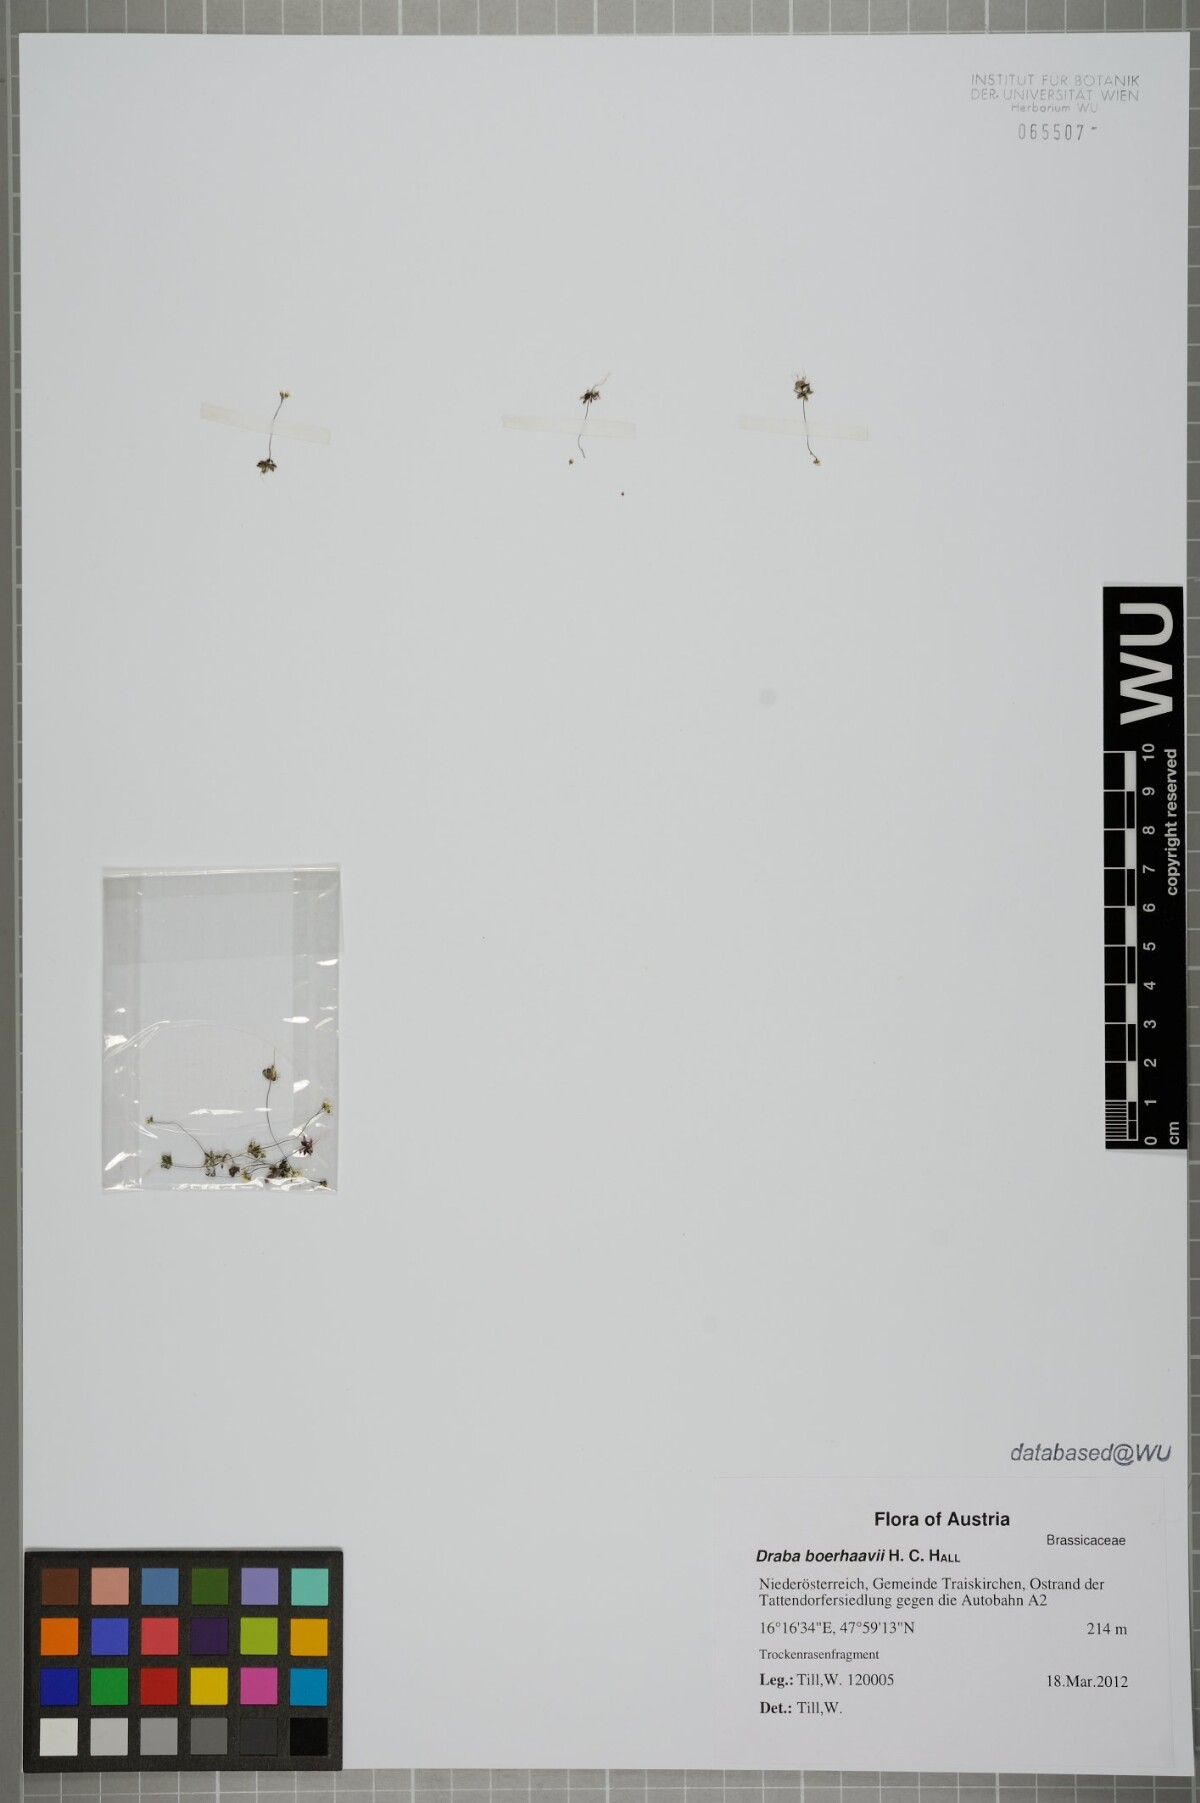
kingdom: Plantae
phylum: Tracheophyta
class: Magnoliopsida
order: Brassicales
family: Brassicaceae
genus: Draba
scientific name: Draba verna
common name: Spring draba
